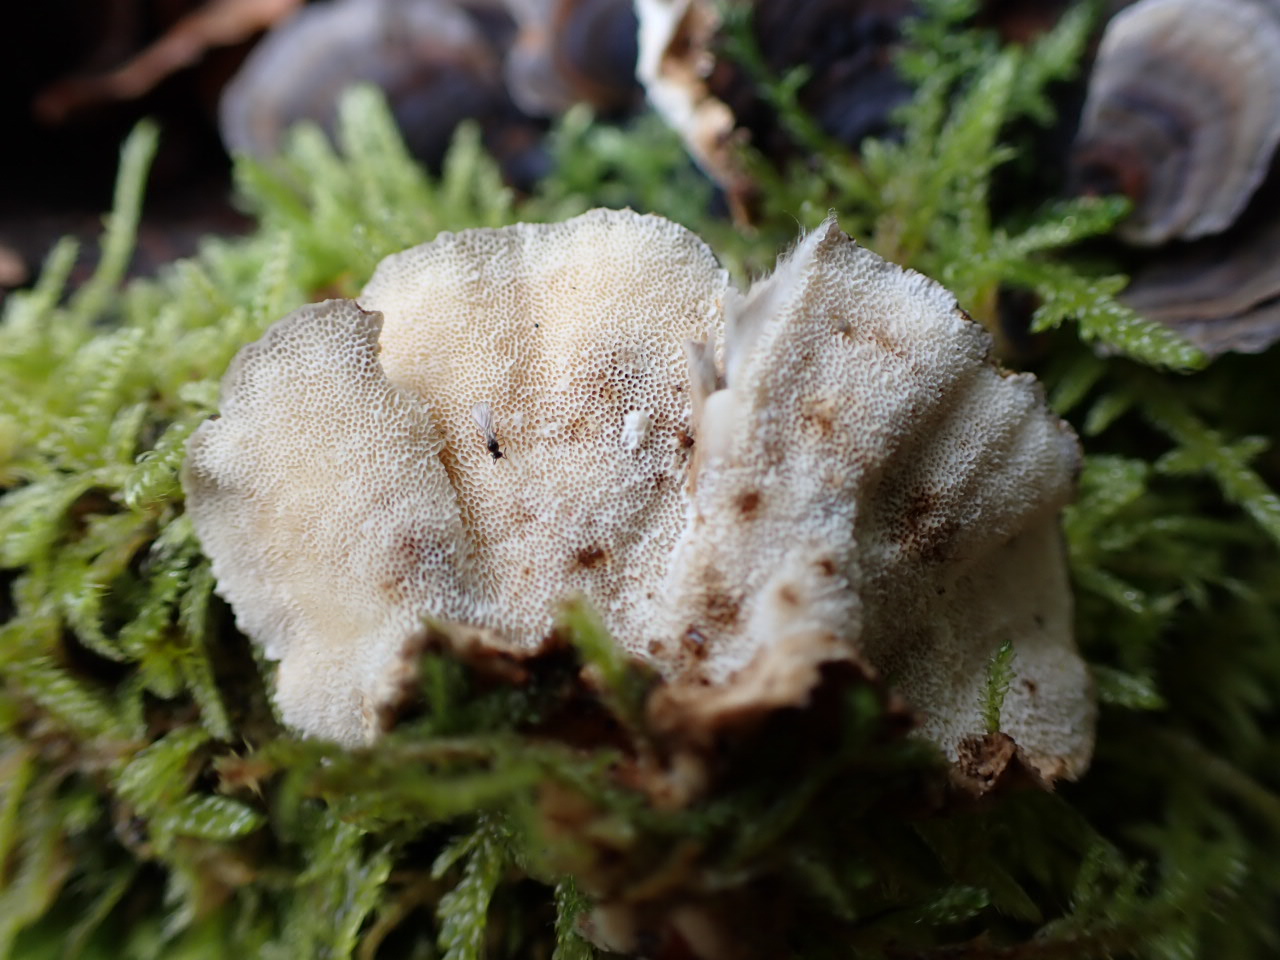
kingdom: Fungi
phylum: Basidiomycota
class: Agaricomycetes
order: Polyporales
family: Polyporaceae
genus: Trametes
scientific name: Trametes versicolor
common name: broget læderporesvamp
